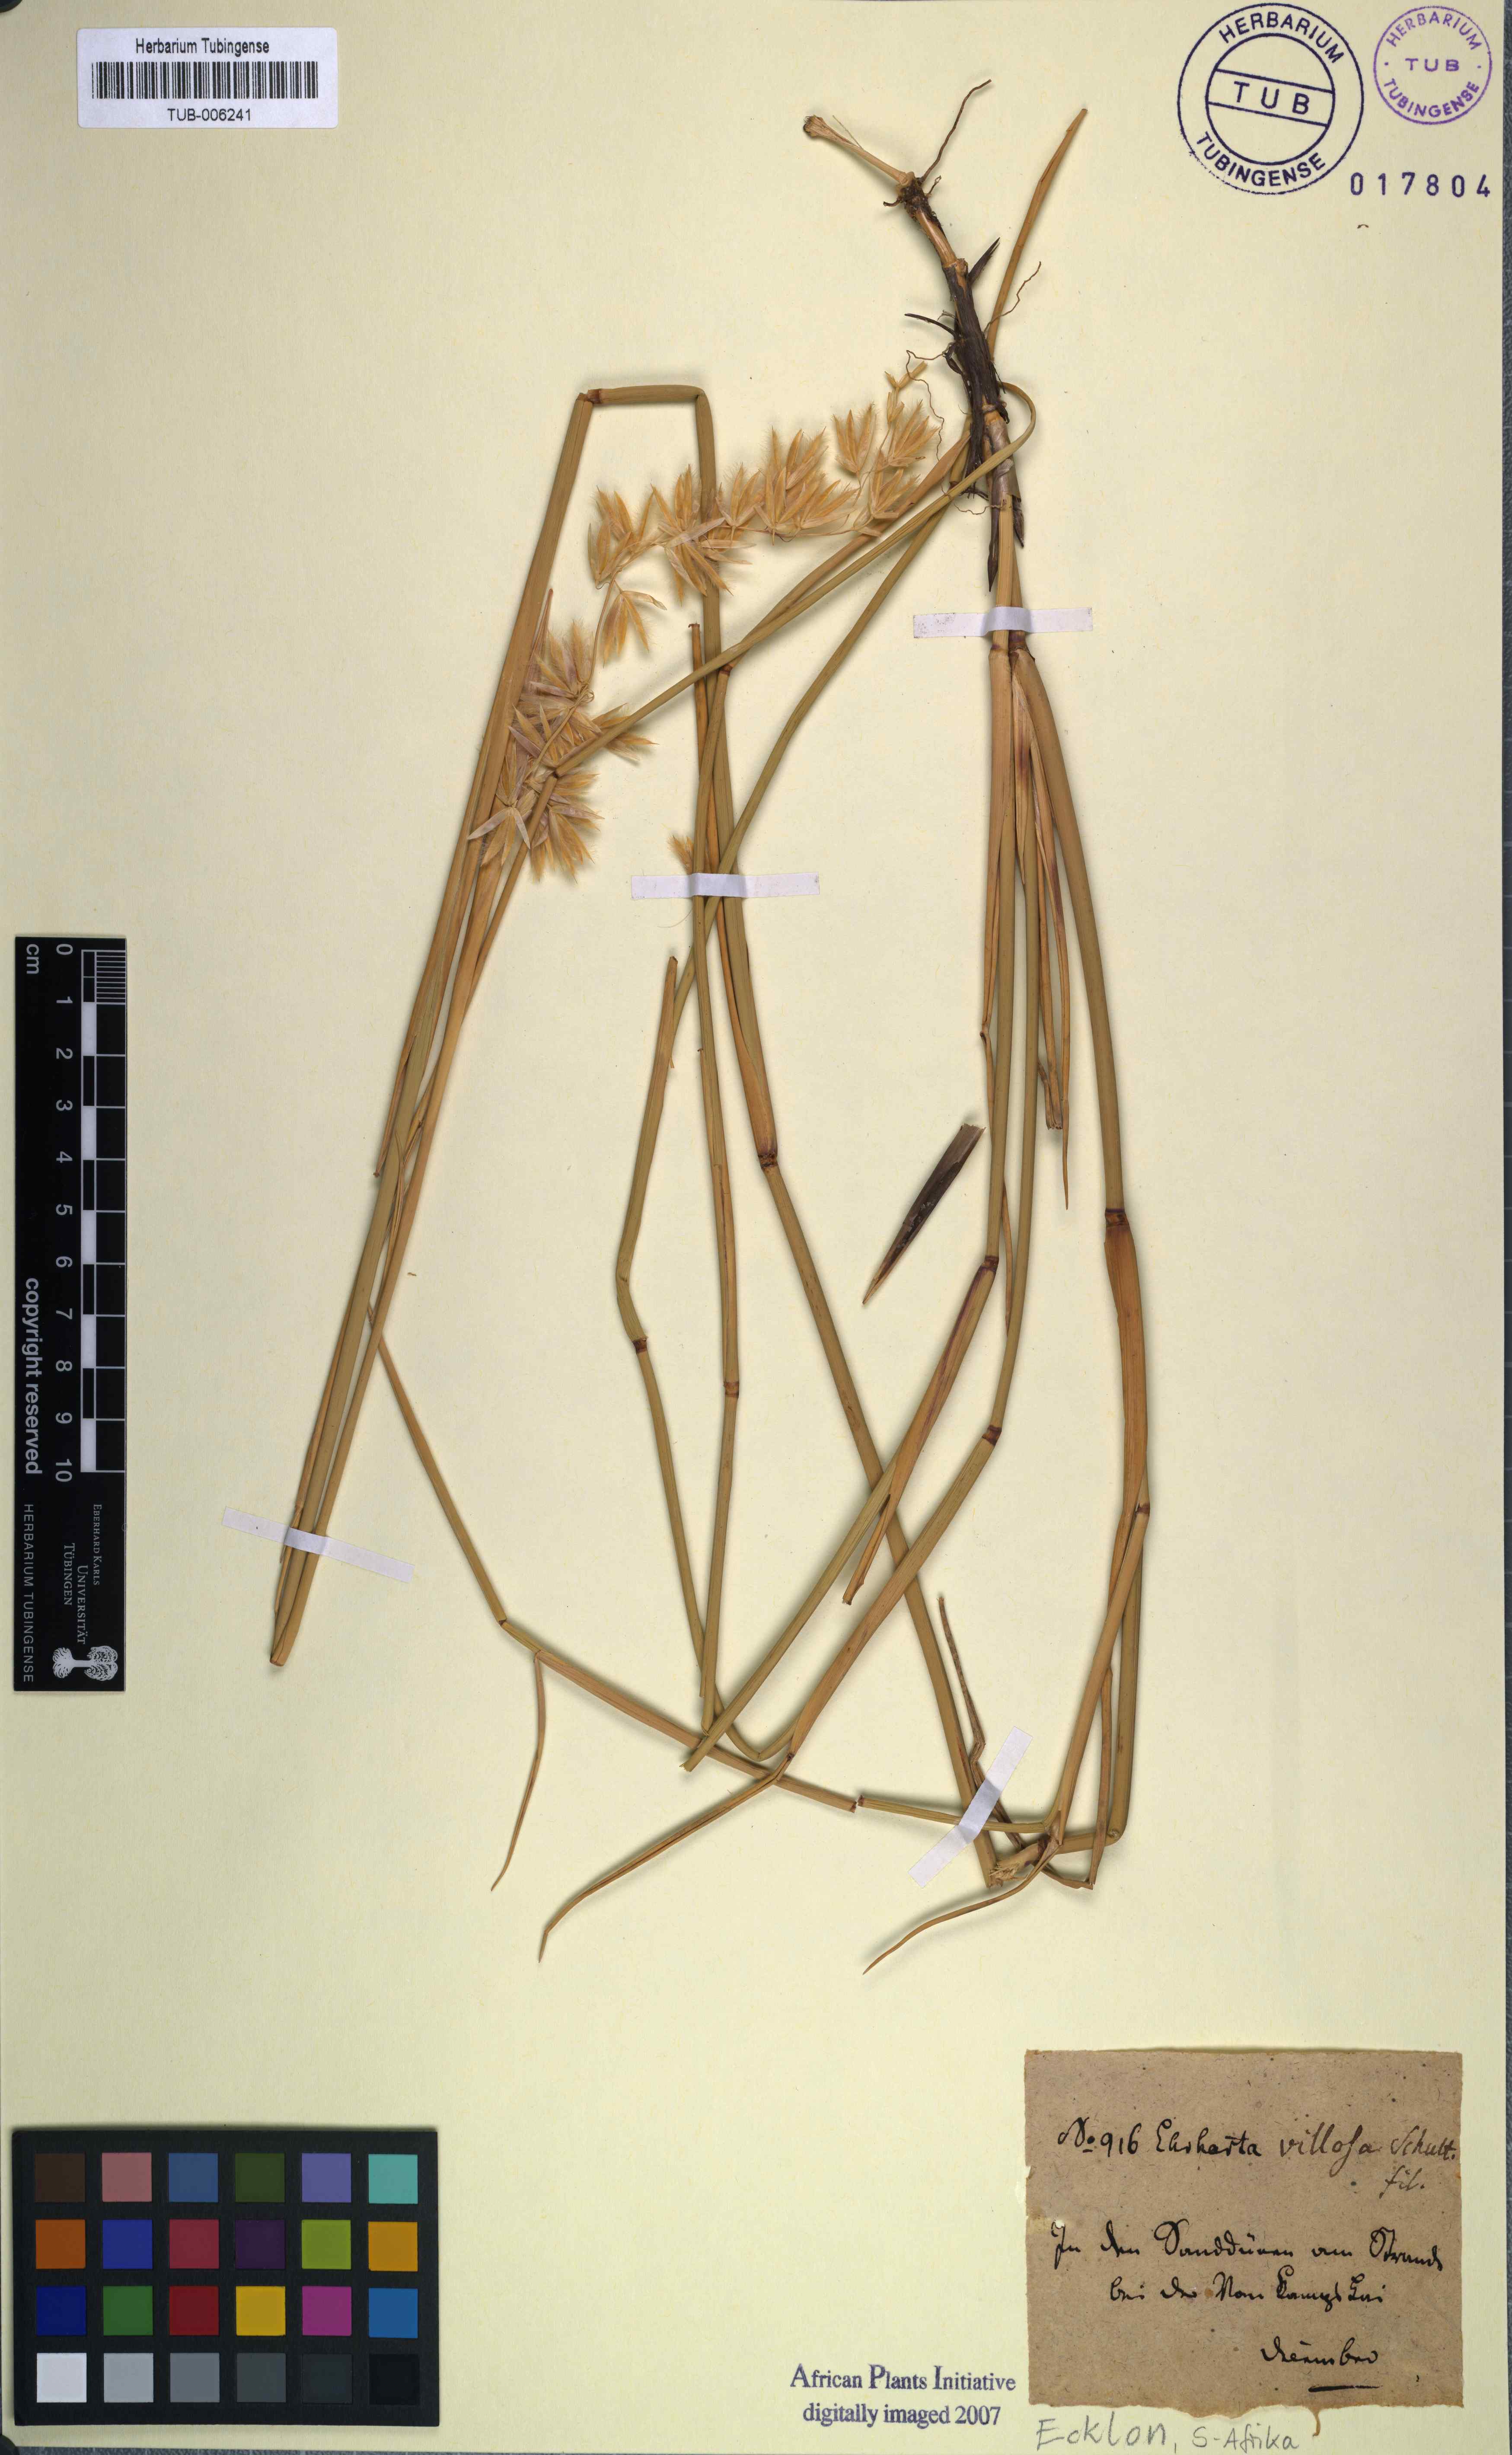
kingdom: Plantae
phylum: Tracheophyta
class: Liliopsida
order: Poales
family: Poaceae
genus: Ehrharta
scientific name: Ehrharta villosa
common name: Pyp grass
